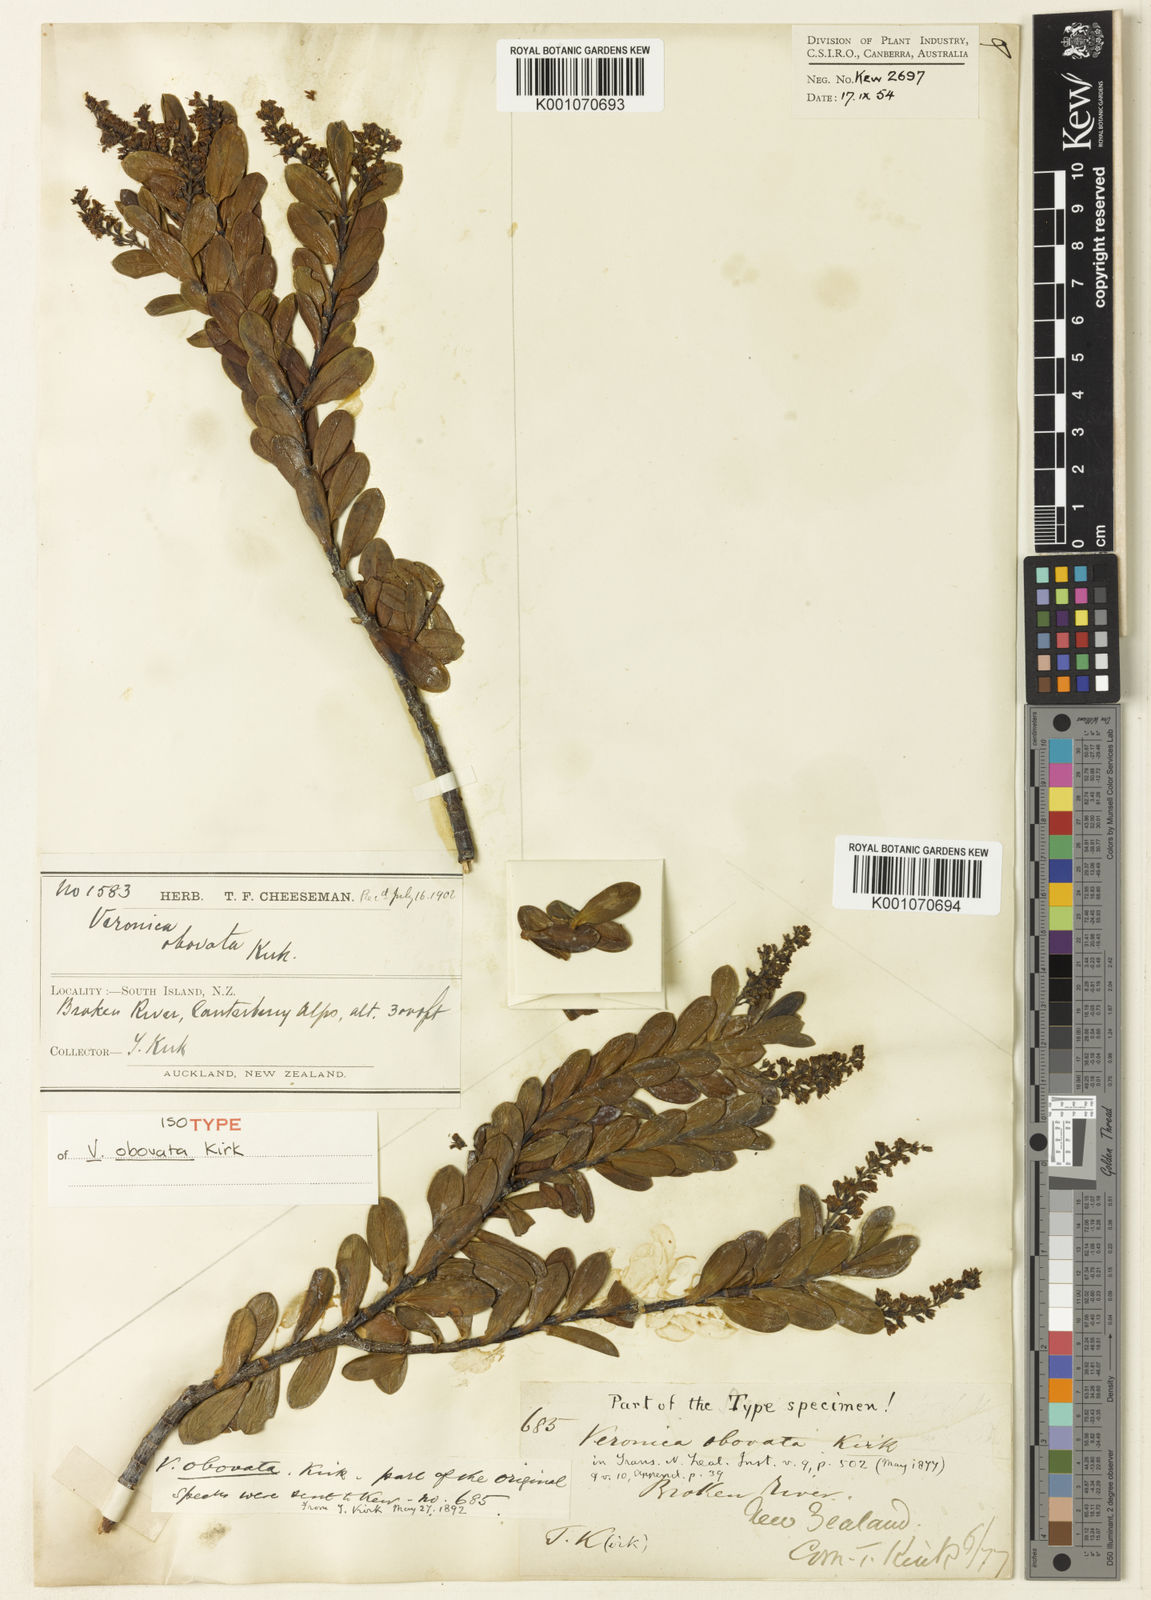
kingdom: Plantae
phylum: Tracheophyta
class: Magnoliopsida
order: Lamiales
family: Plantaginaceae
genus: Veronica
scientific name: Veronica
